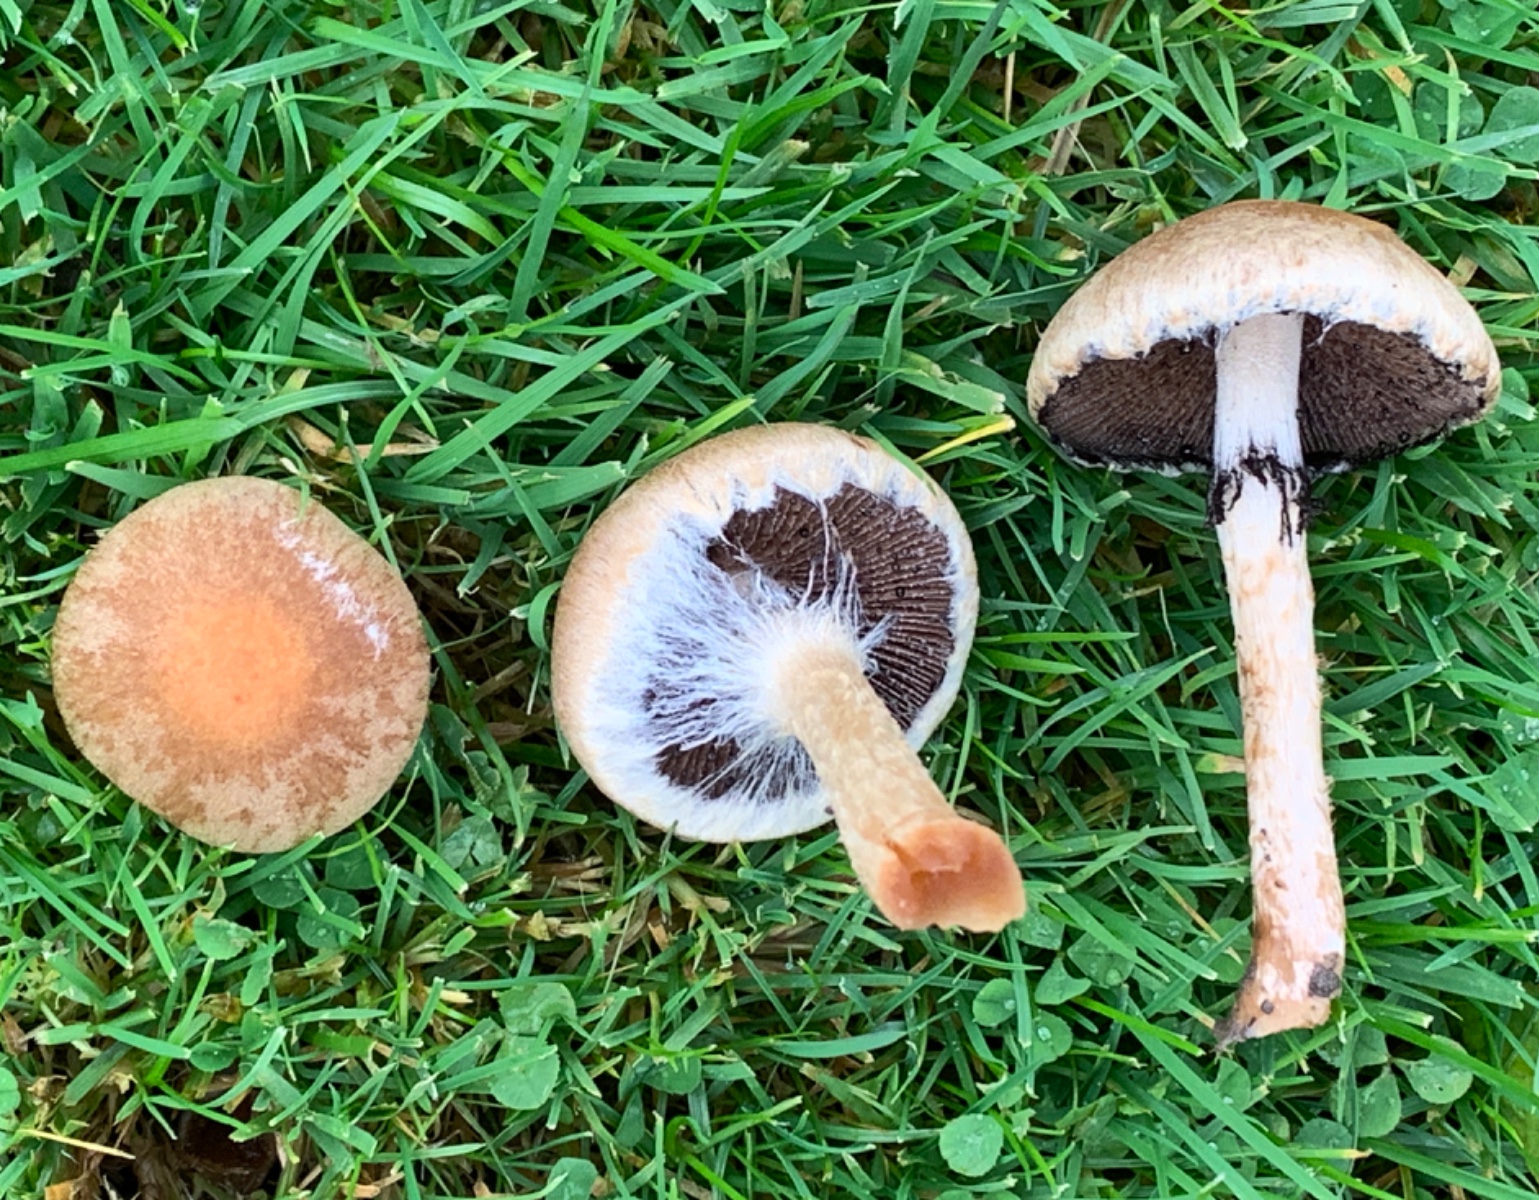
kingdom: Fungi
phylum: Basidiomycota
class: Agaricomycetes
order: Agaricales
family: Psathyrellaceae
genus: Lacrymaria
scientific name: Lacrymaria lacrymabunda
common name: grædende mørkhat
